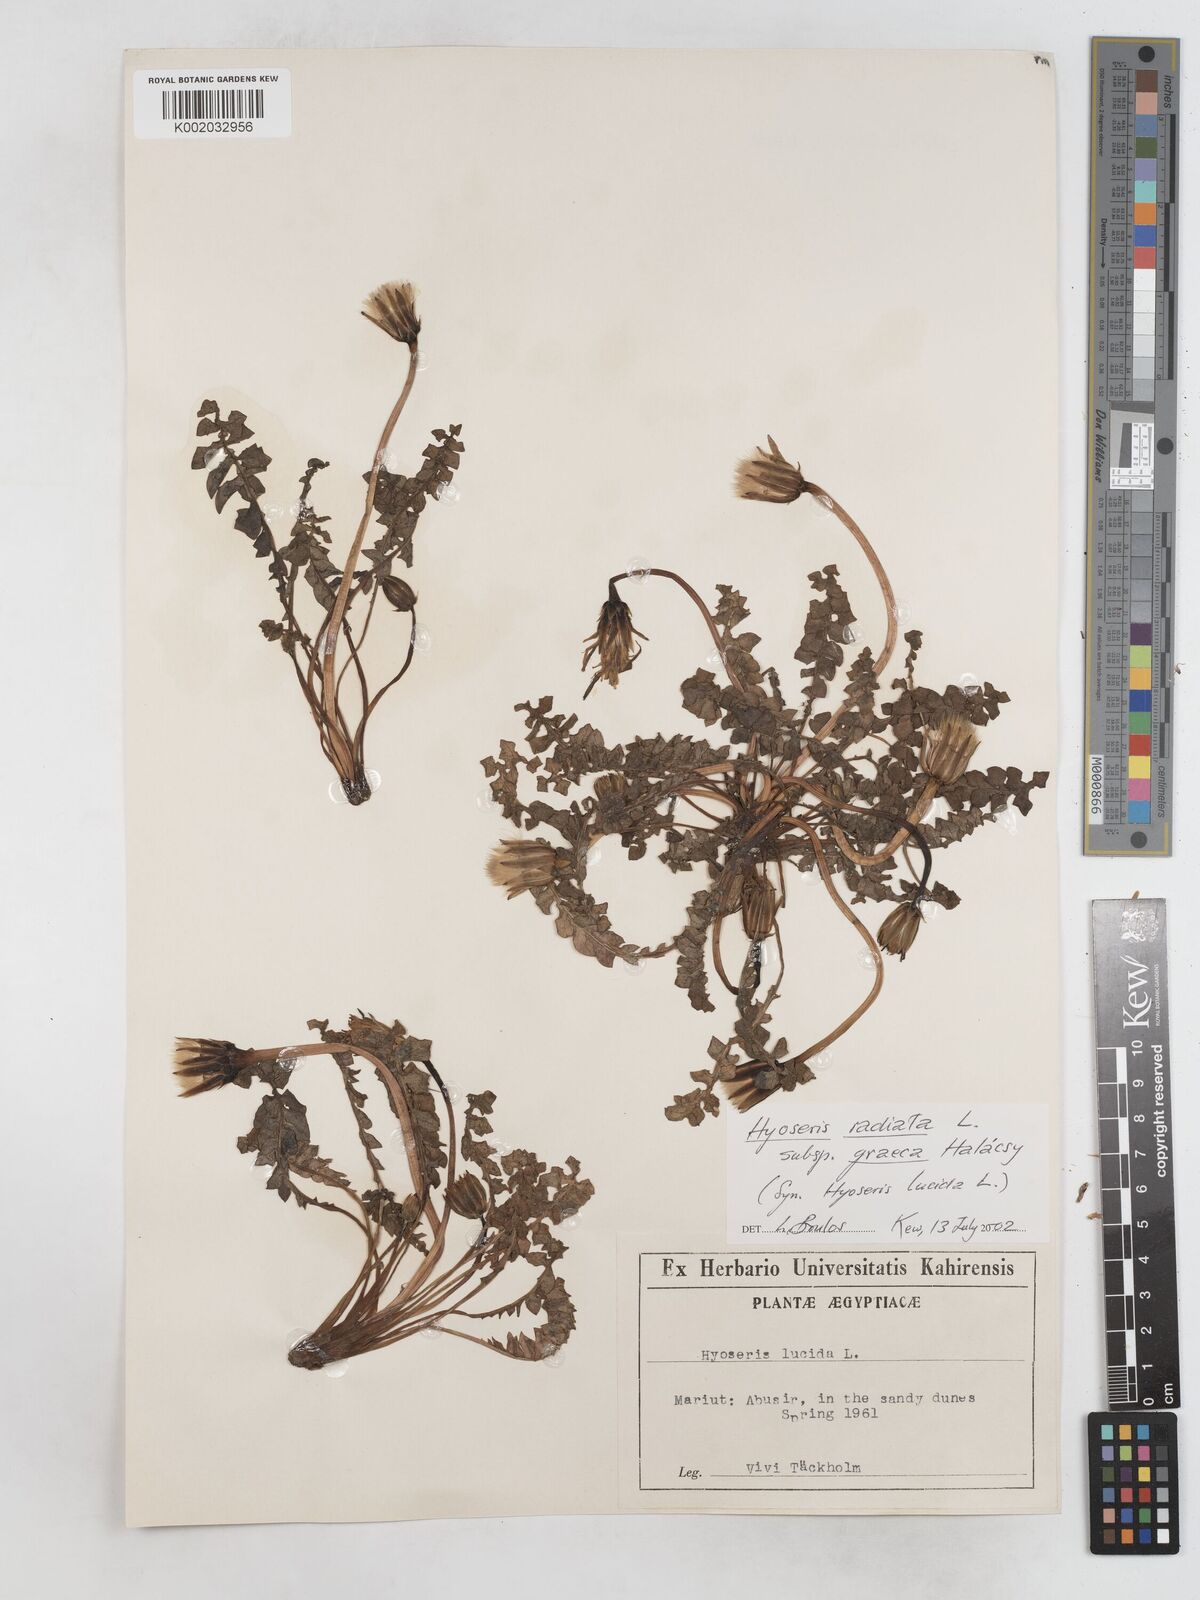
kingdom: Plantae
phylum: Tracheophyta
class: Magnoliopsida
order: Asterales
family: Asteraceae
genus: Hyoseris
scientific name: Hyoseris lucida
